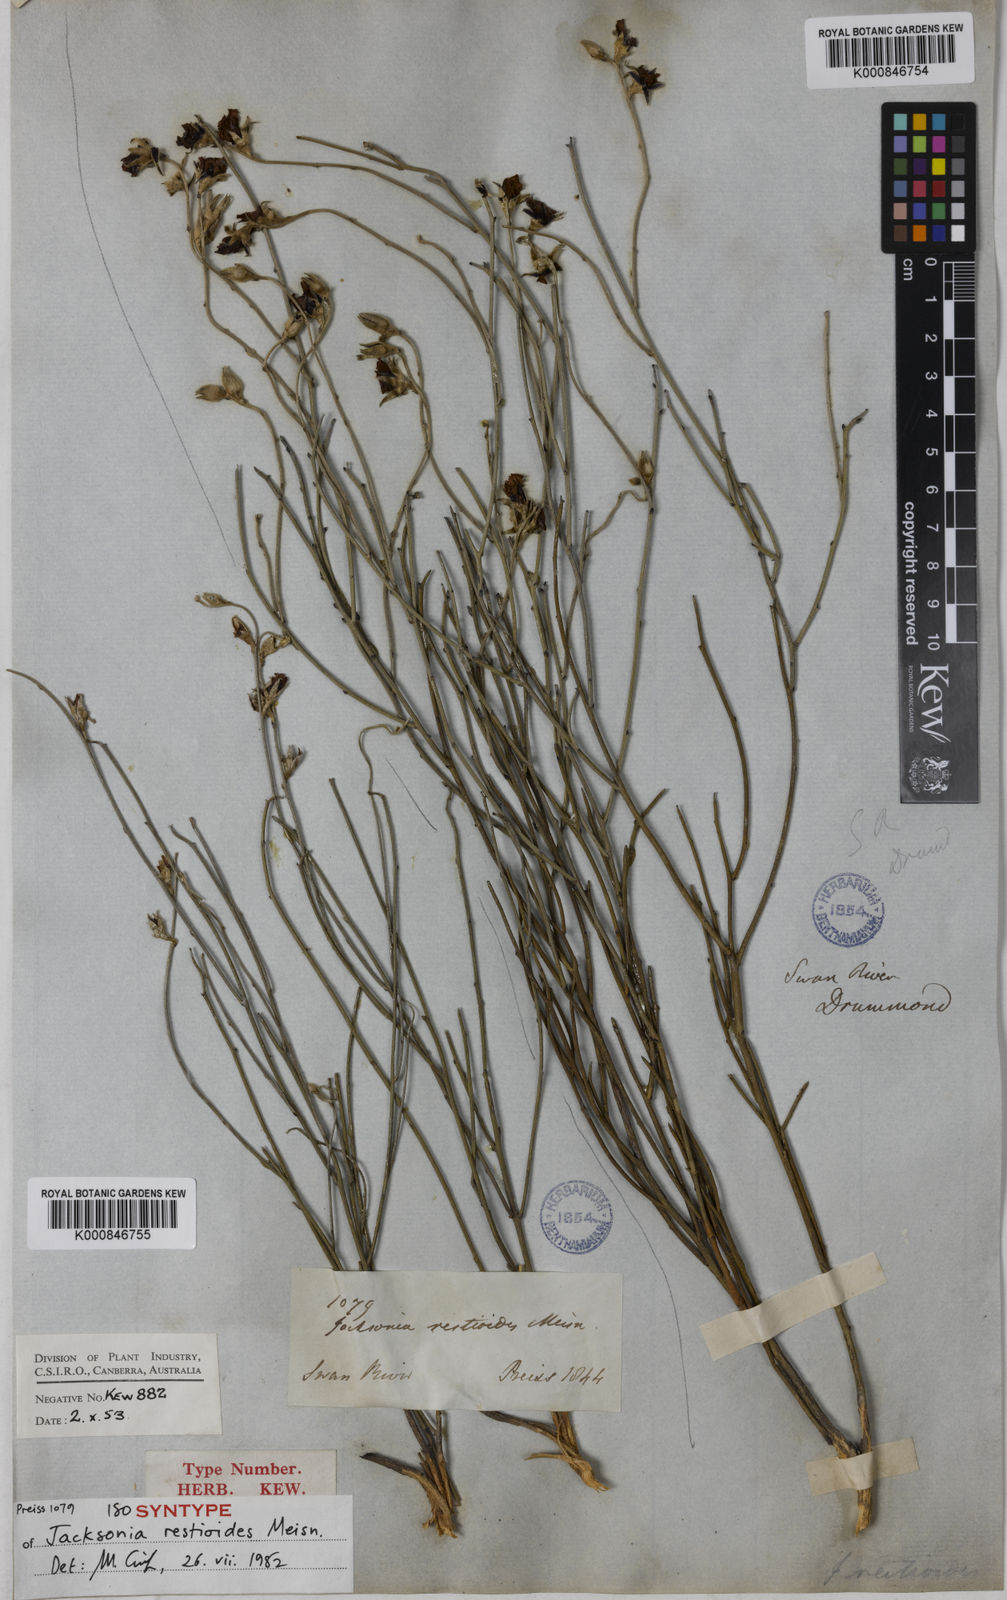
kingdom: Plantae
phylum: Tracheophyta
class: Magnoliopsida
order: Fabales
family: Fabaceae
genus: Jacksonia
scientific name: Jacksonia restioides
